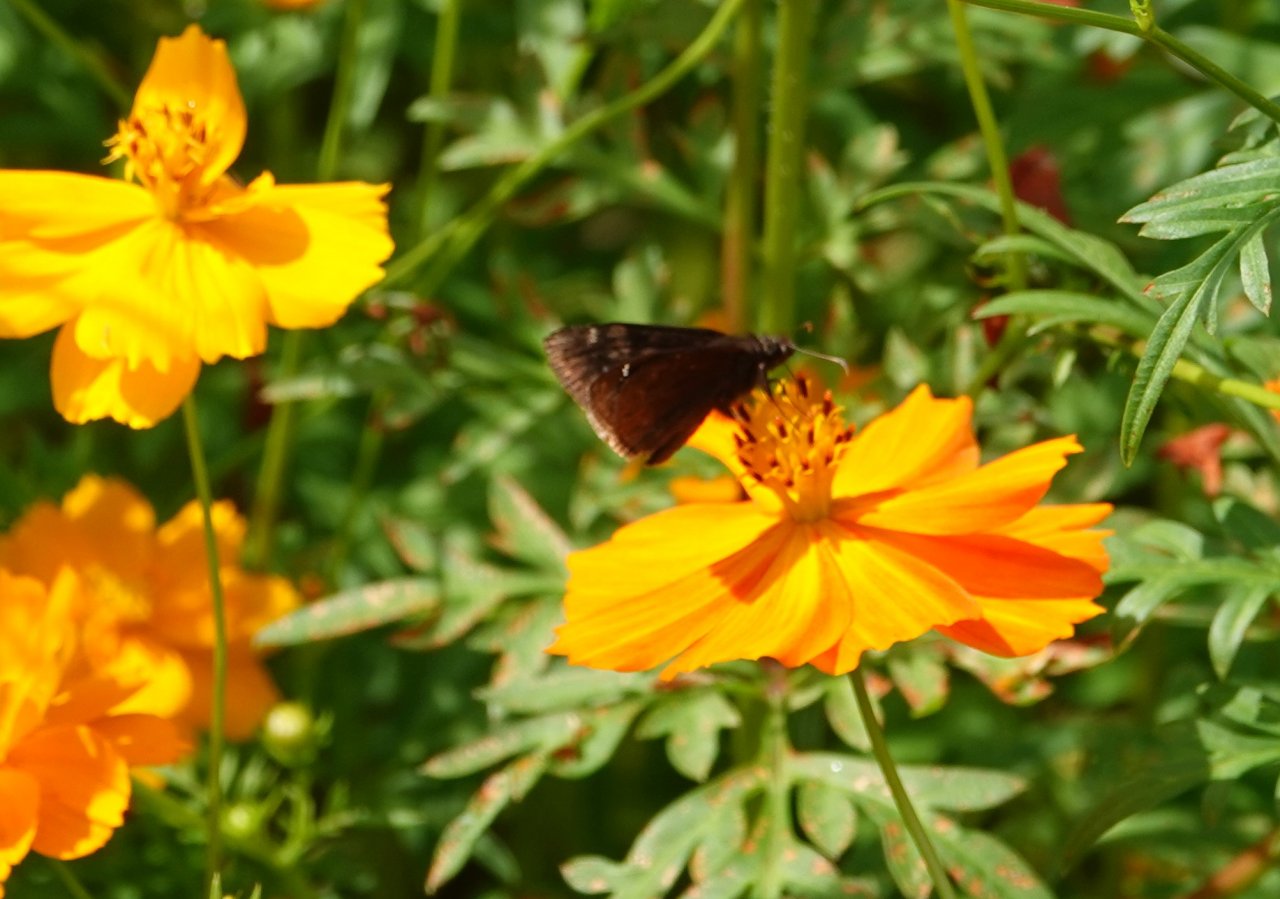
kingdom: Animalia
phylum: Arthropoda
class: Insecta
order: Lepidoptera
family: Hesperiidae
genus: Erynnis
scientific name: Erynnis zarucco
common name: Zarucco Duskywing
